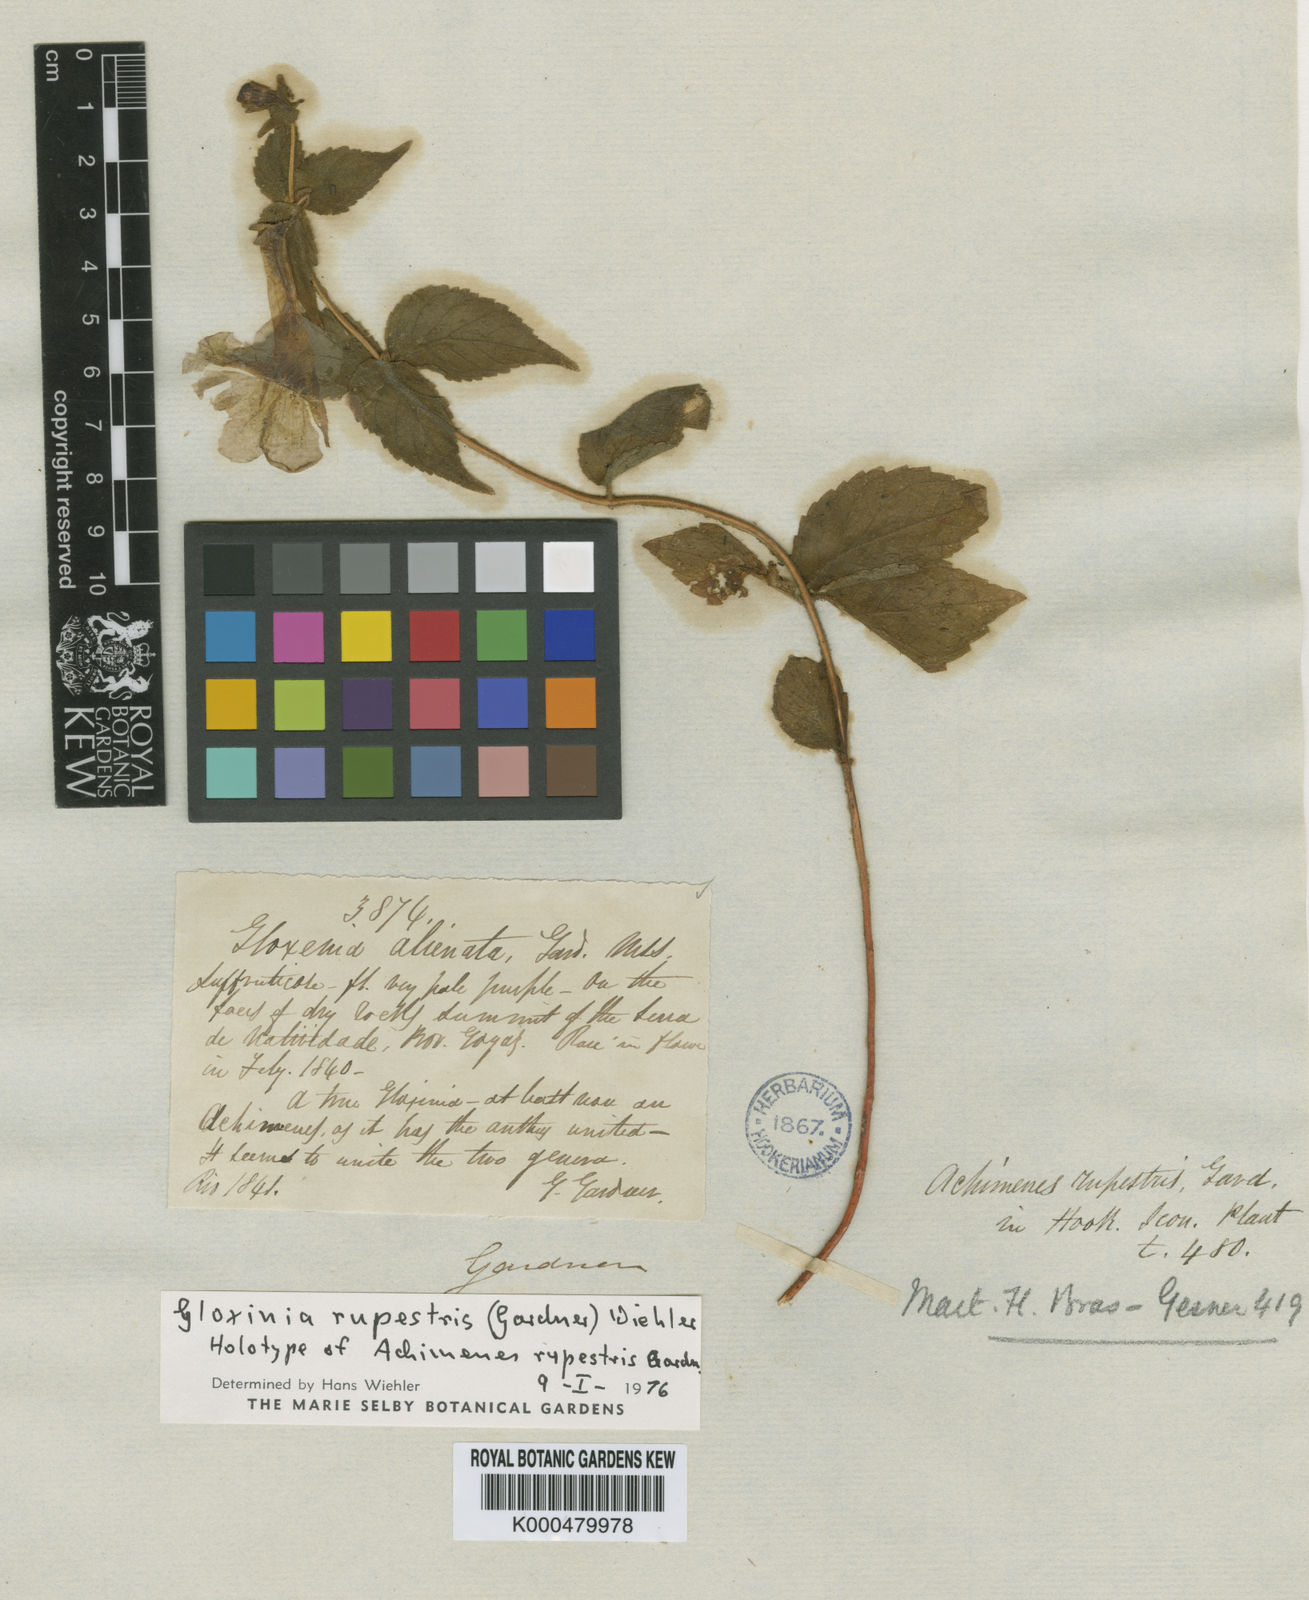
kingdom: Plantae
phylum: Tracheophyta
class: Magnoliopsida
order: Lamiales
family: Gesneriaceae
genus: Mandirola
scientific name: Mandirola rupestris
